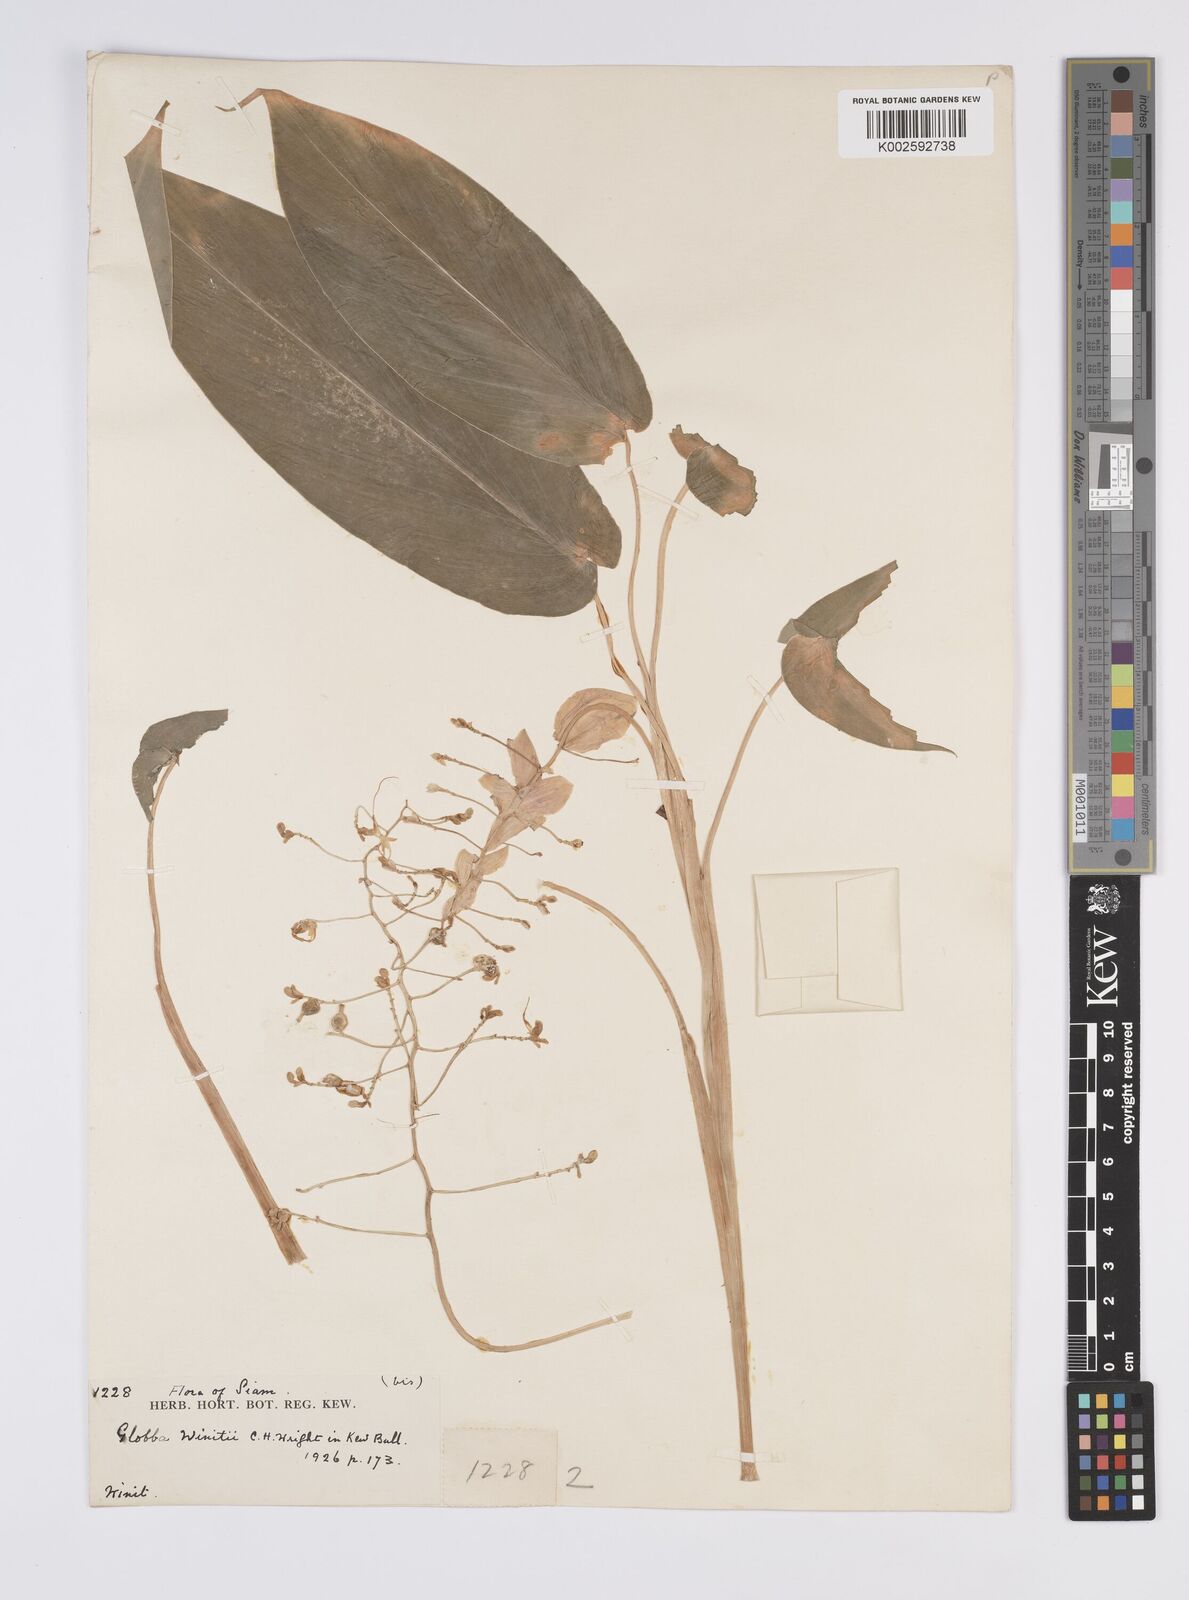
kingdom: Plantae
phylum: Tracheophyta
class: Liliopsida
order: Zingiberales
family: Zingiberaceae
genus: Globba
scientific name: Globba winitii
